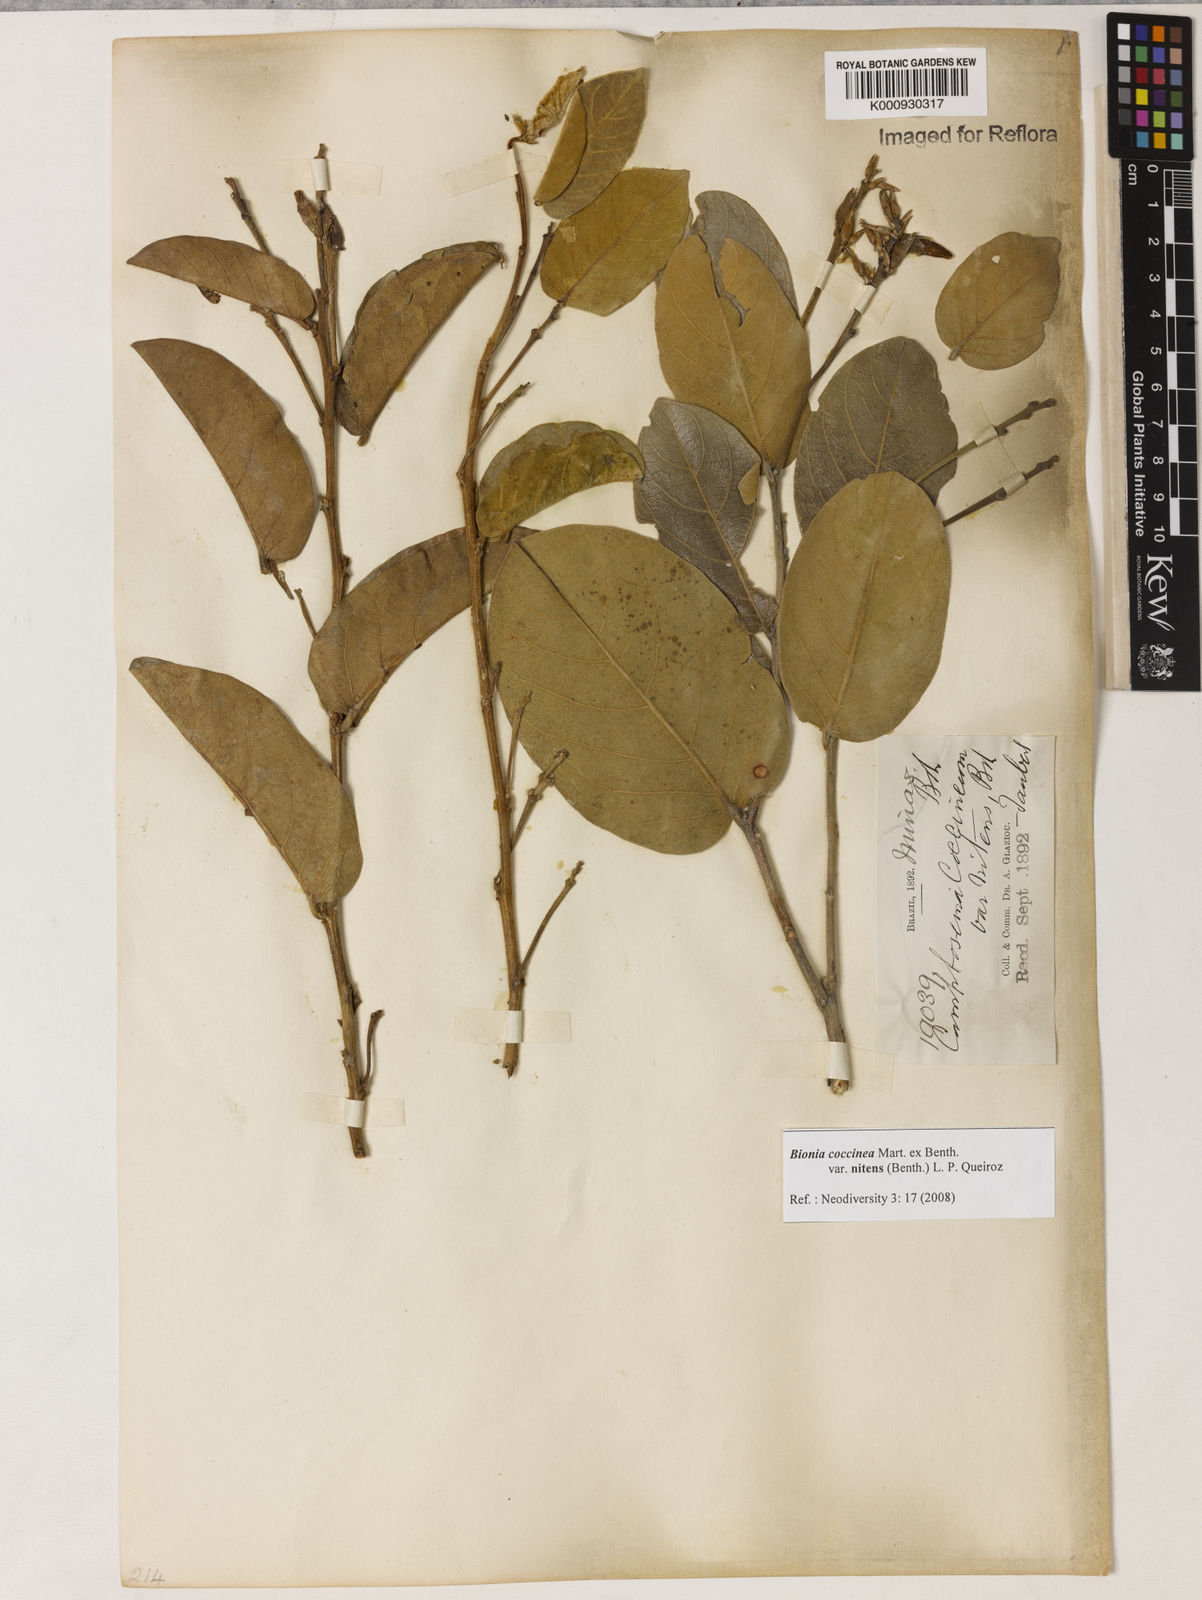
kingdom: Plantae
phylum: Tracheophyta
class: Magnoliopsida
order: Fabales
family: Fabaceae
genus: Camptosema
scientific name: Camptosema coccineum
